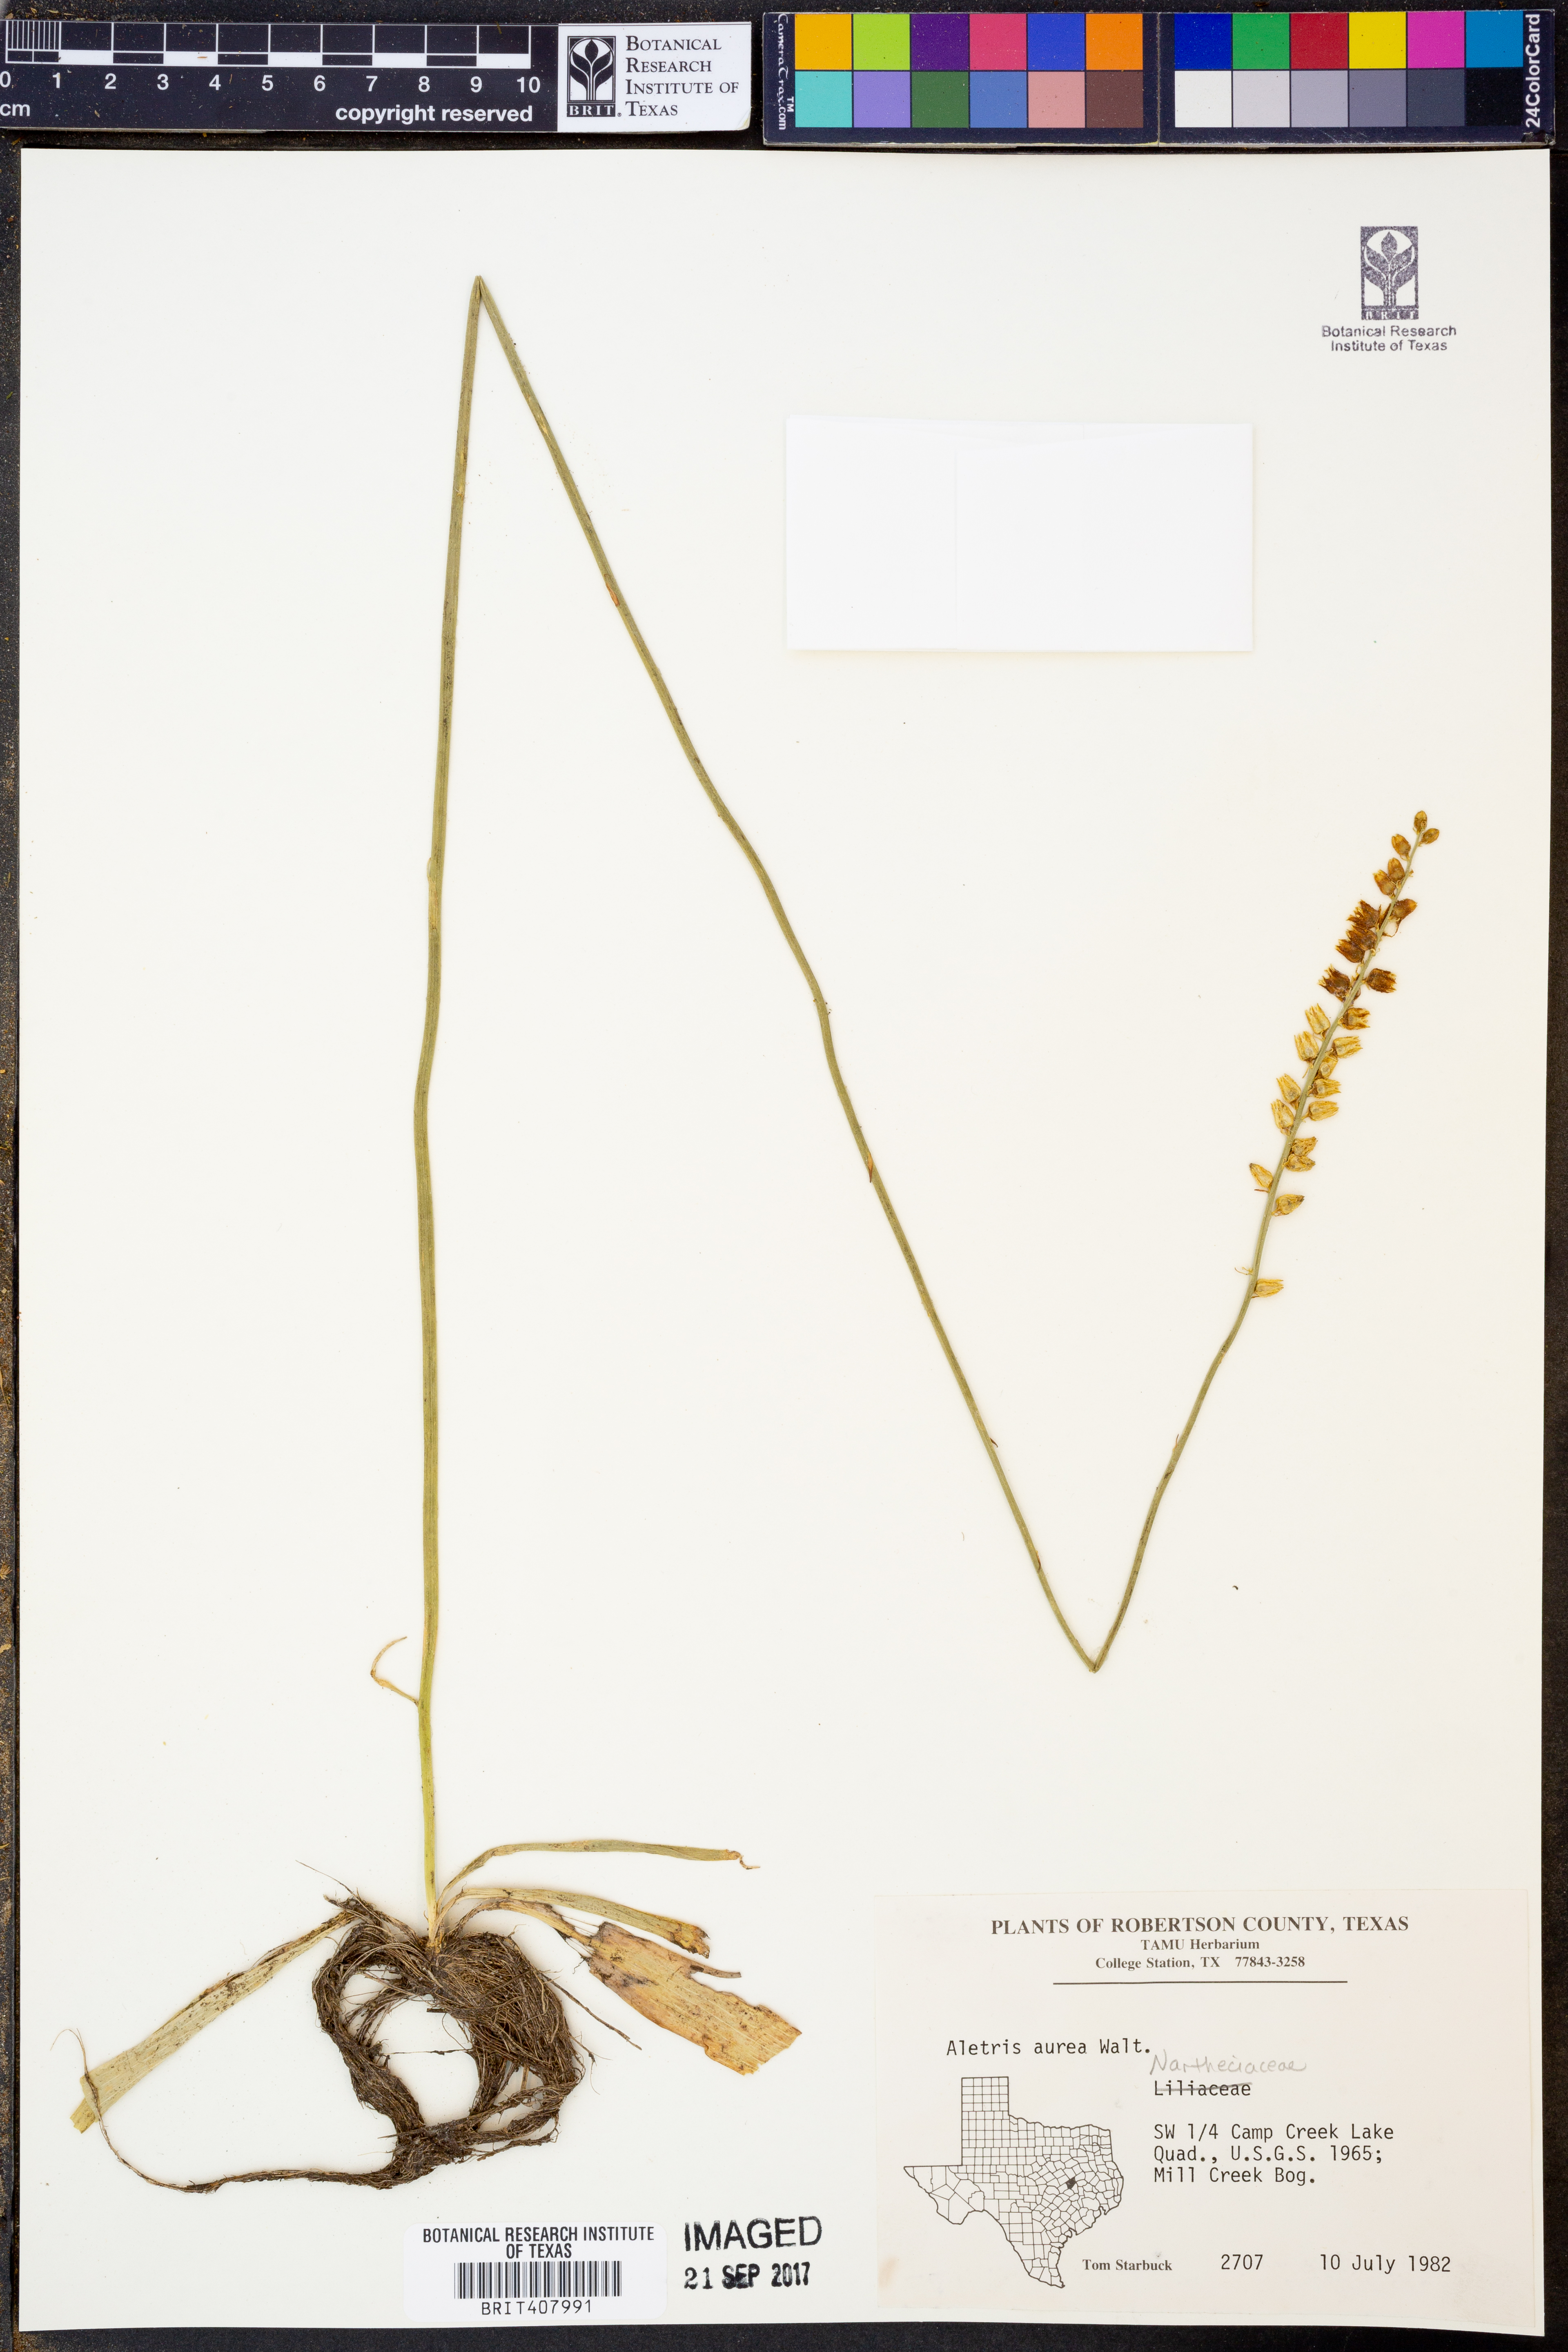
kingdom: Plantae
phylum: Tracheophyta
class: Liliopsida
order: Dioscoreales
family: Nartheciaceae
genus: Aletris
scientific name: Aletris aurea
